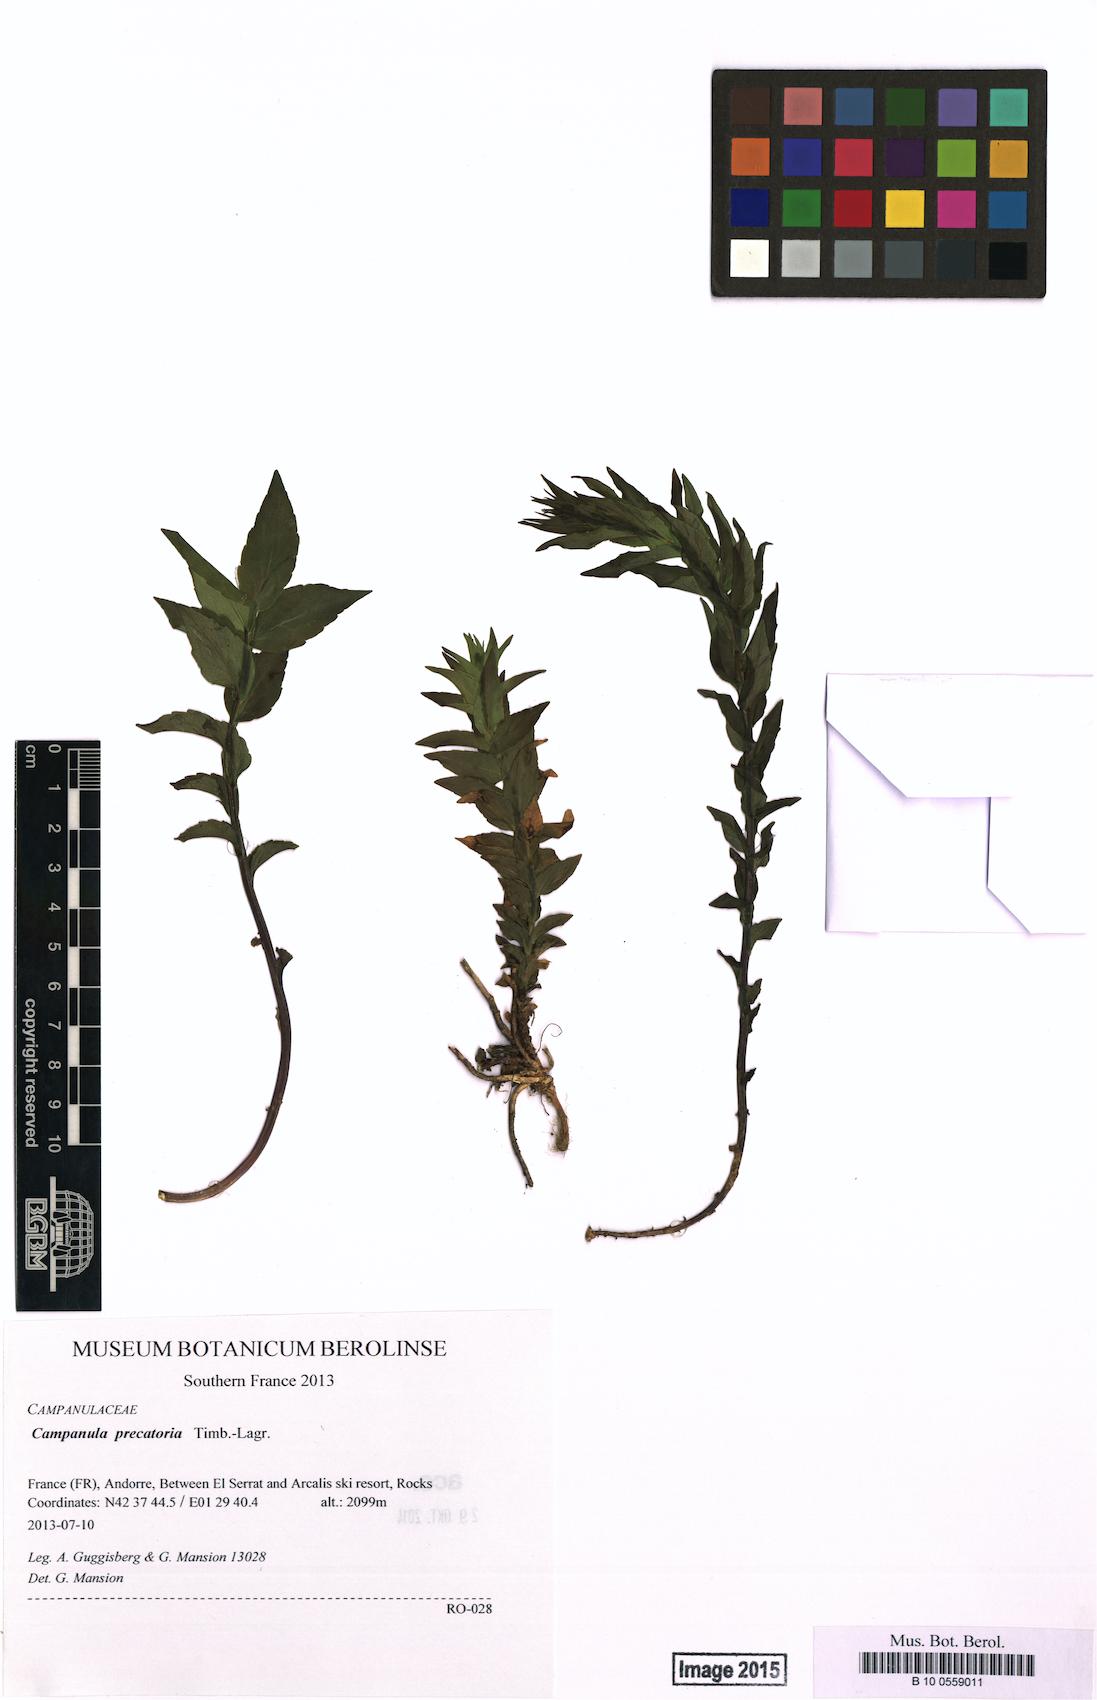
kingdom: Plantae
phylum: Tracheophyta
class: Magnoliopsida
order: Asterales
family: Campanulaceae
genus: Campanula
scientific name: Campanula precatoria
